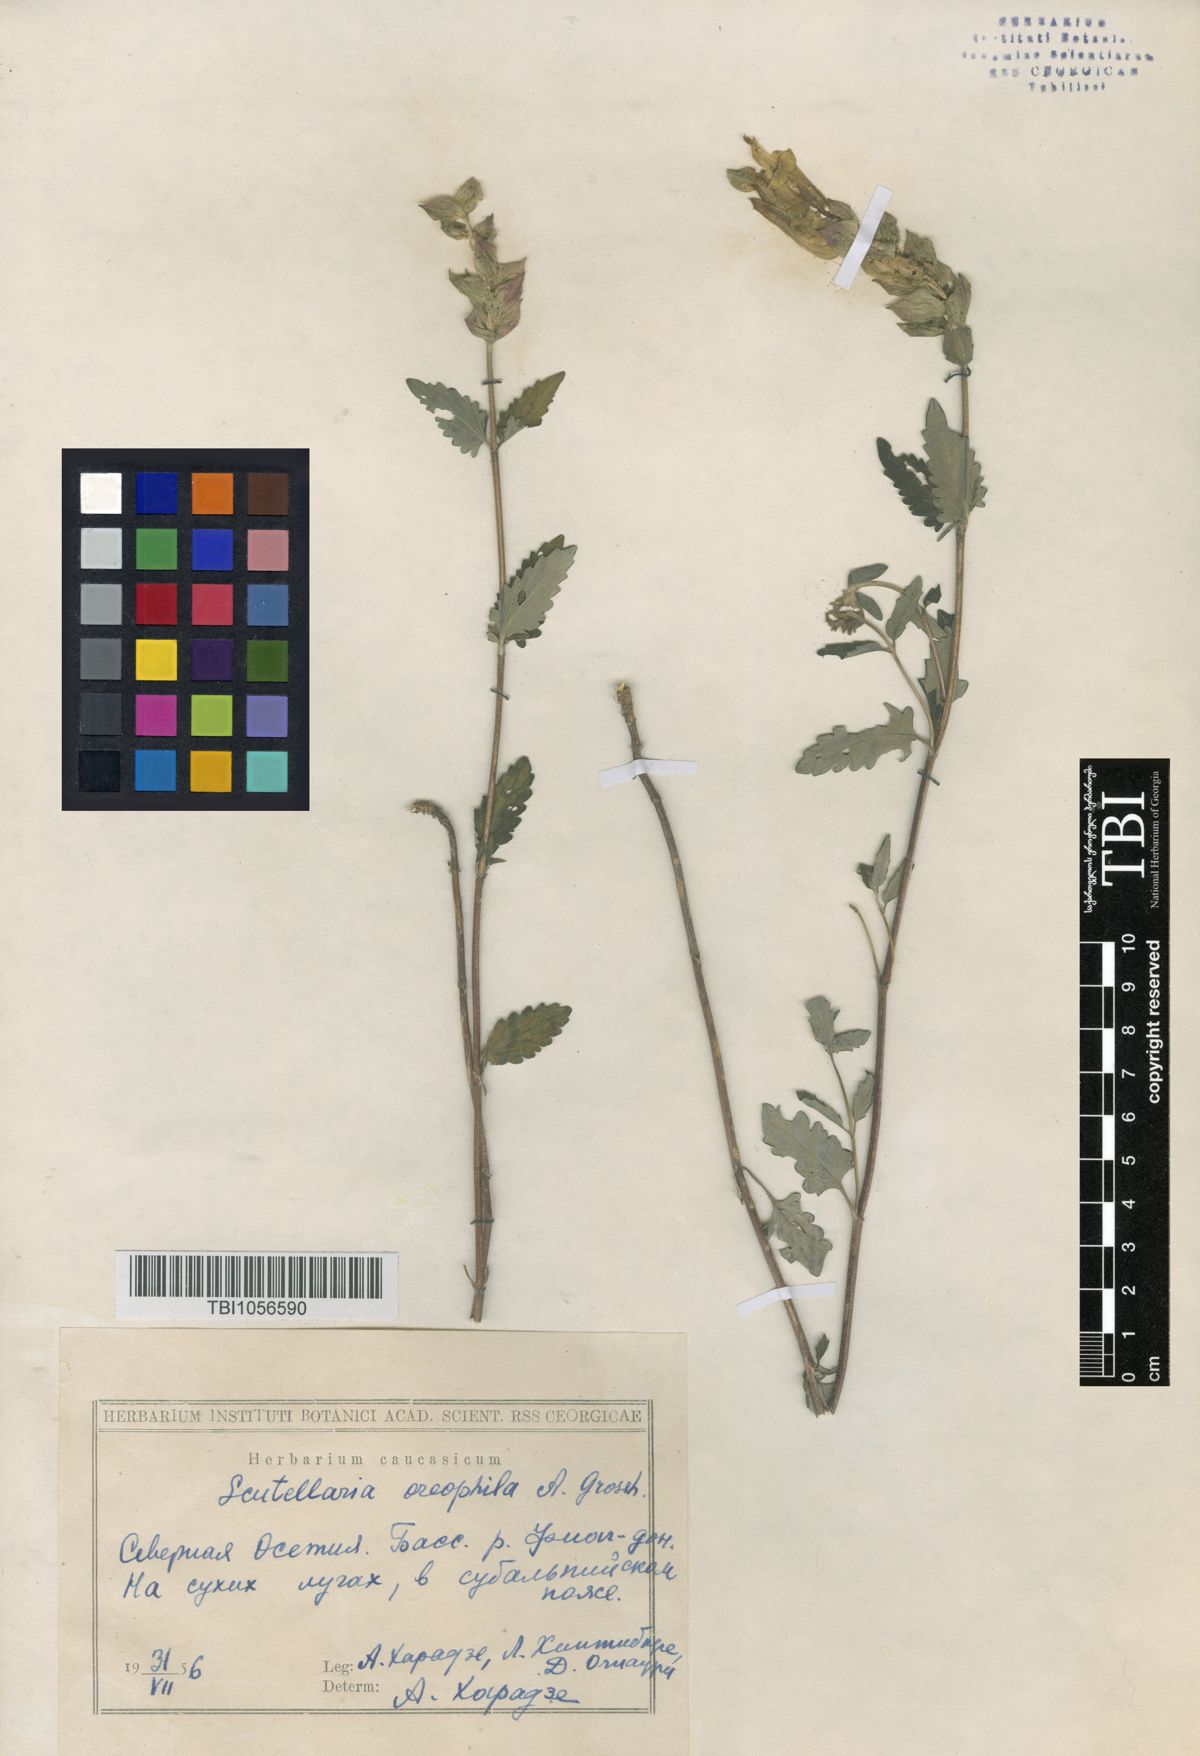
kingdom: Plantae
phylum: Tracheophyta
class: Magnoliopsida
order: Lamiales
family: Lamiaceae
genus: Scutellaria
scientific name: Scutellaria oreophila
